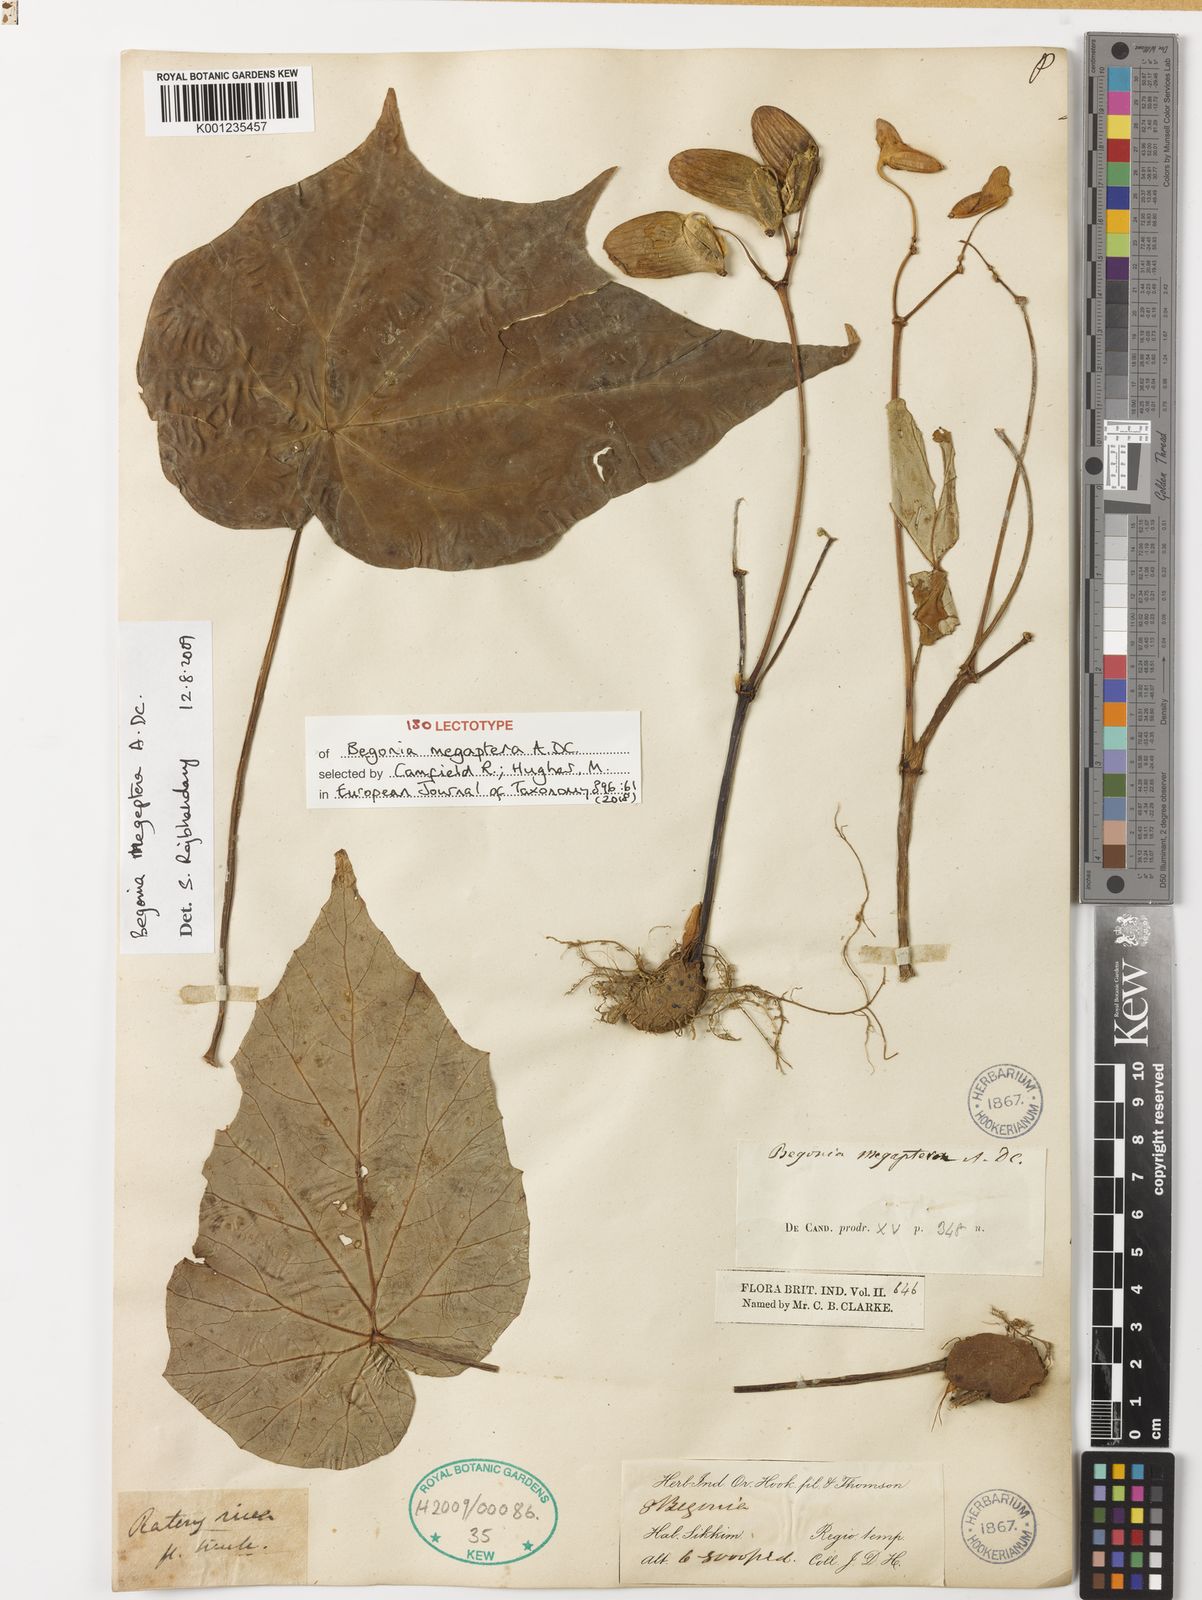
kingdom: Plantae
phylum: Tracheophyta
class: Magnoliopsida
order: Cucurbitales
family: Begoniaceae
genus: Begonia
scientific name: Begonia megaptera
